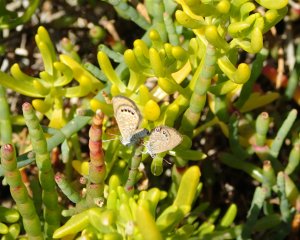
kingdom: Animalia
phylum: Arthropoda
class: Insecta
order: Lepidoptera
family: Lycaenidae
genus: Brephidium
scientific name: Brephidium isophthalma
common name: Eastern Pygmy-Blue
